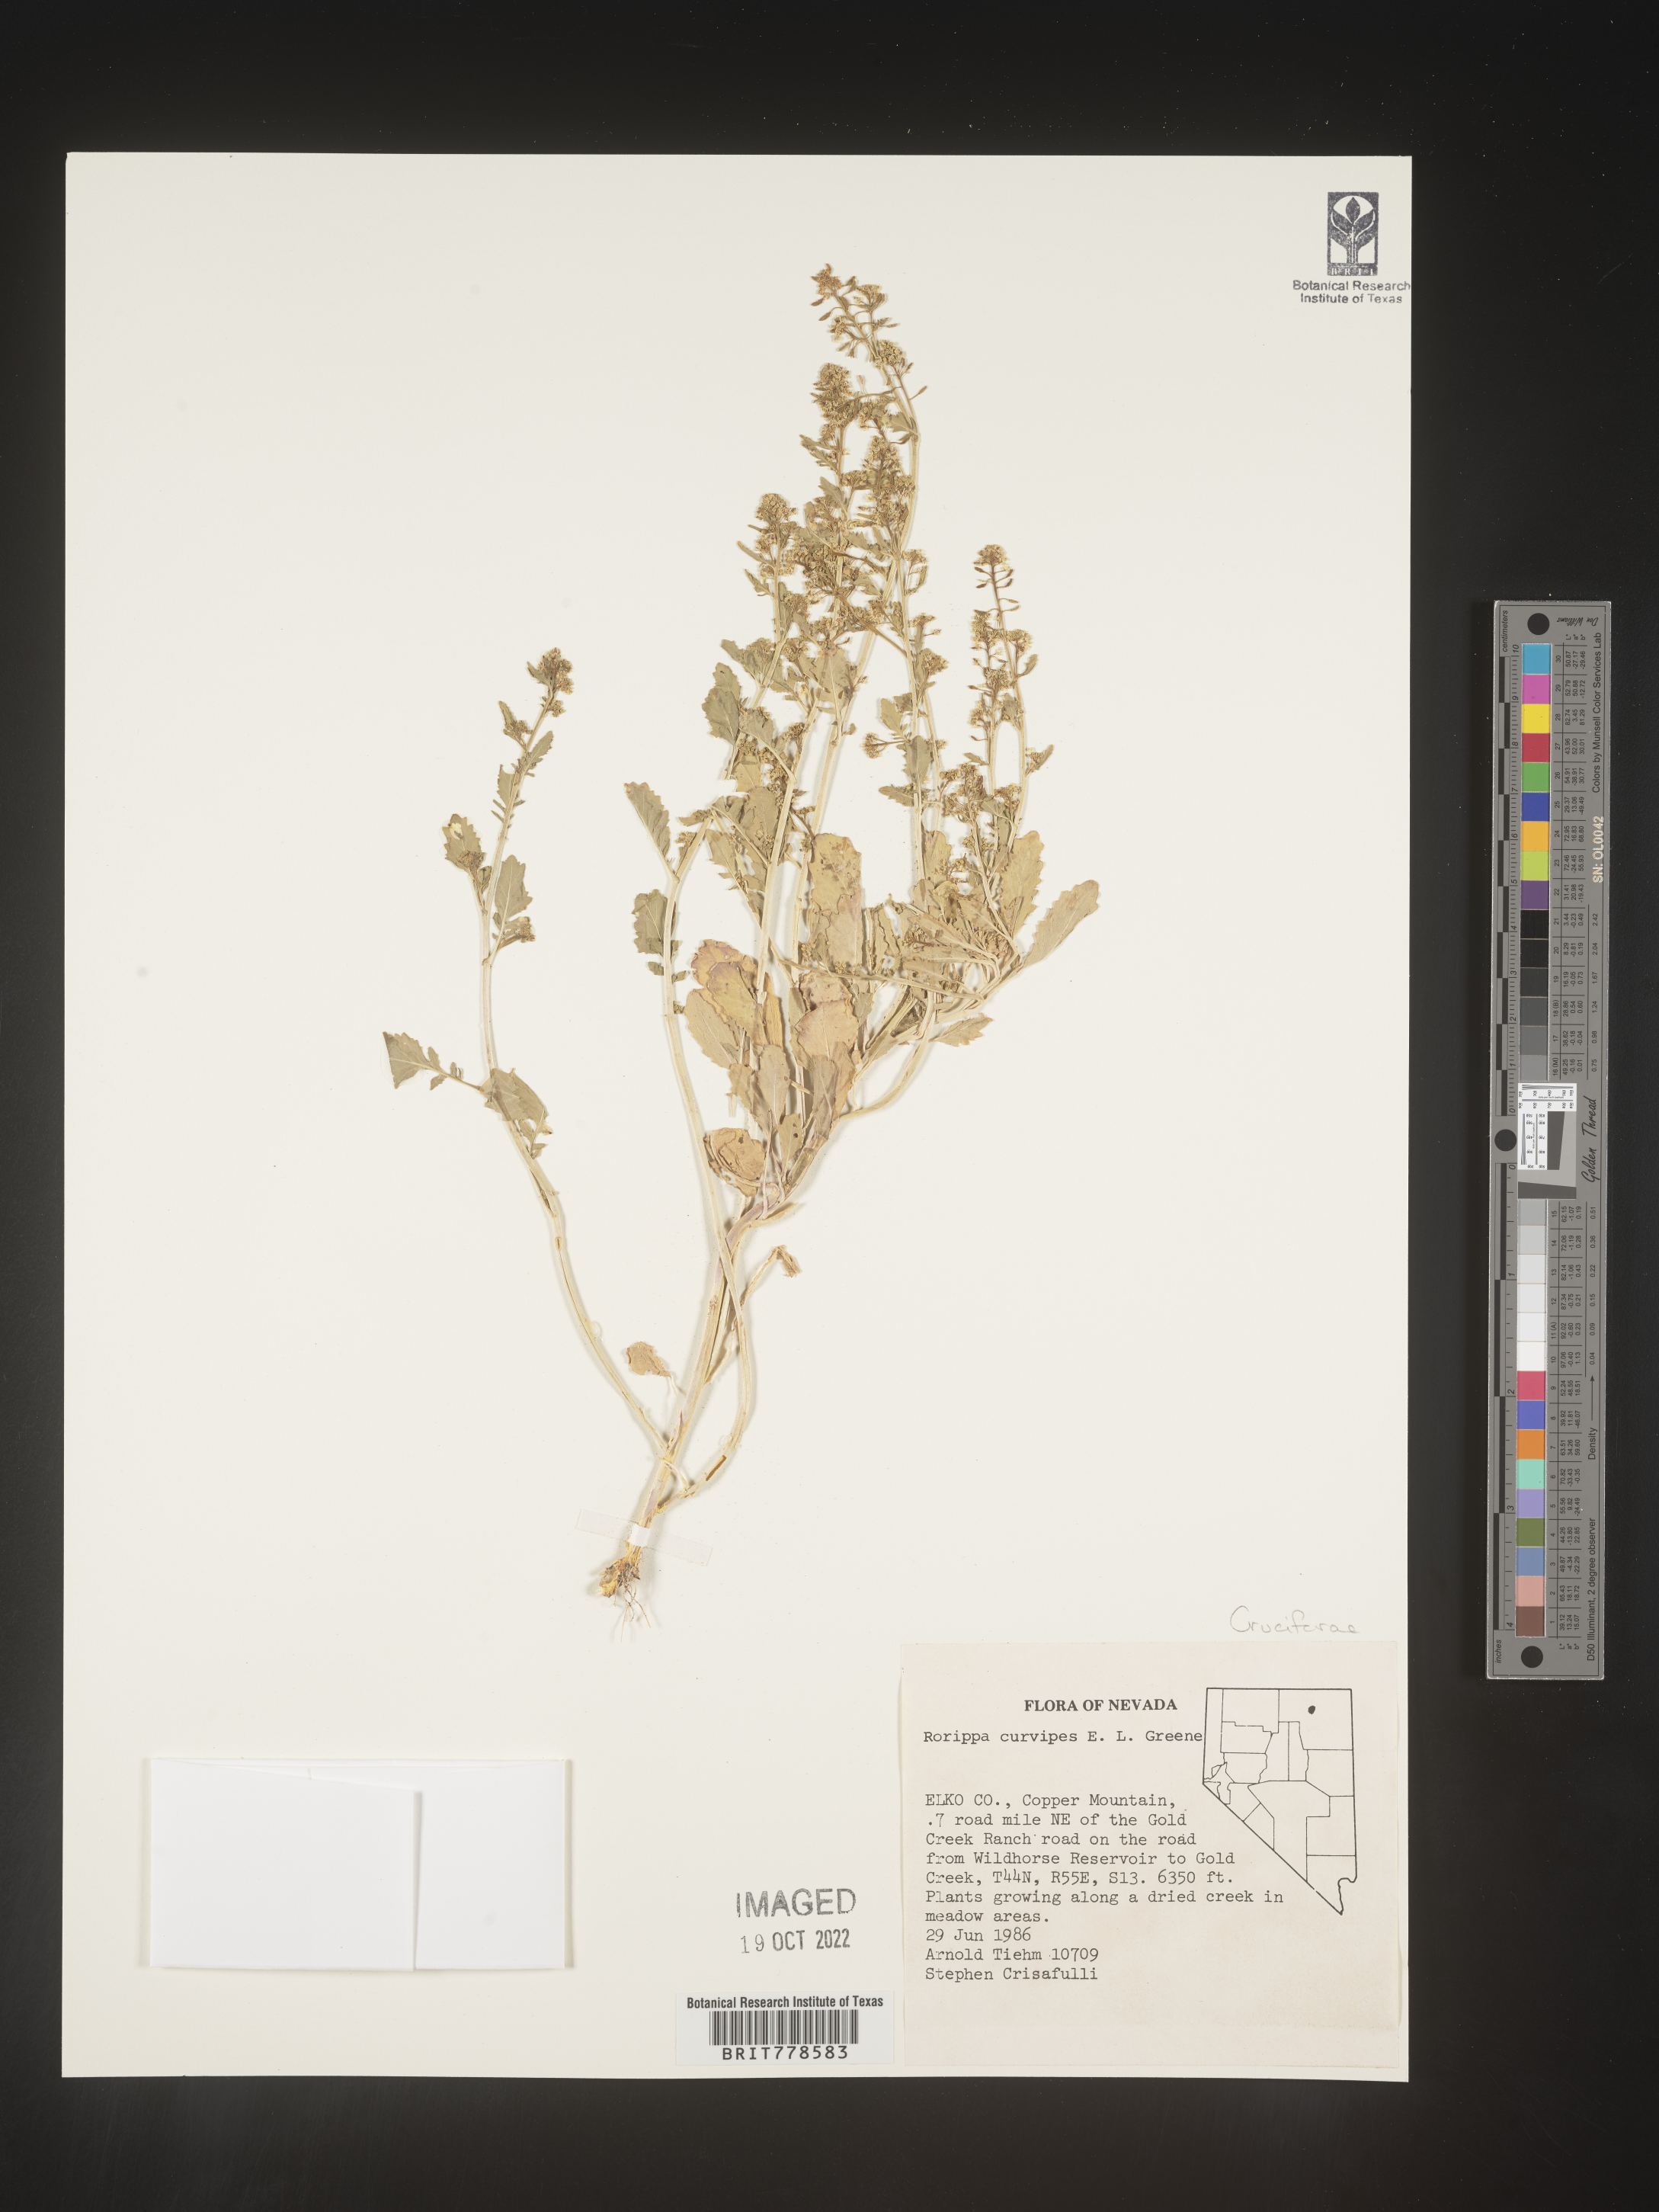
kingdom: Plantae
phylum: Tracheophyta
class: Magnoliopsida
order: Brassicales
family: Brassicaceae
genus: Rorippa
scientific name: Rorippa
